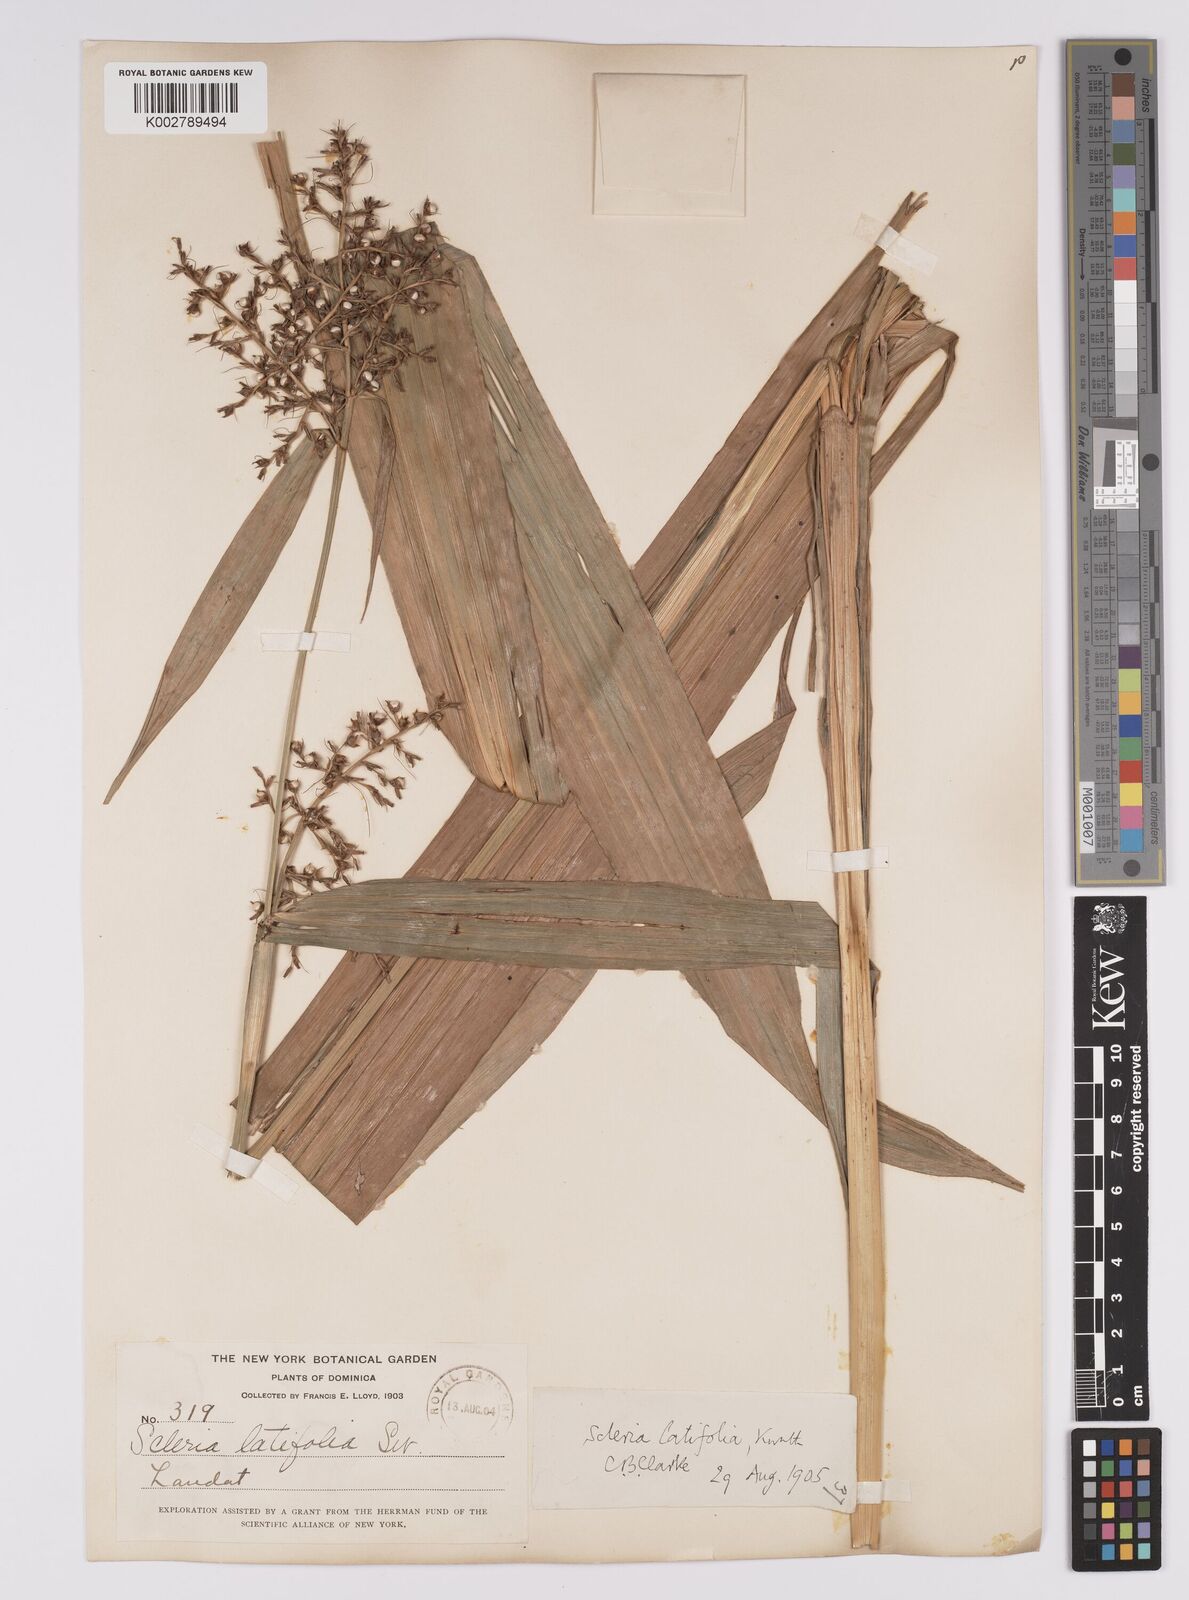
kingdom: Plantae
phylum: Tracheophyta
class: Liliopsida
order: Poales
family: Cyperaceae
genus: Scleria
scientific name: Scleria latifolia
